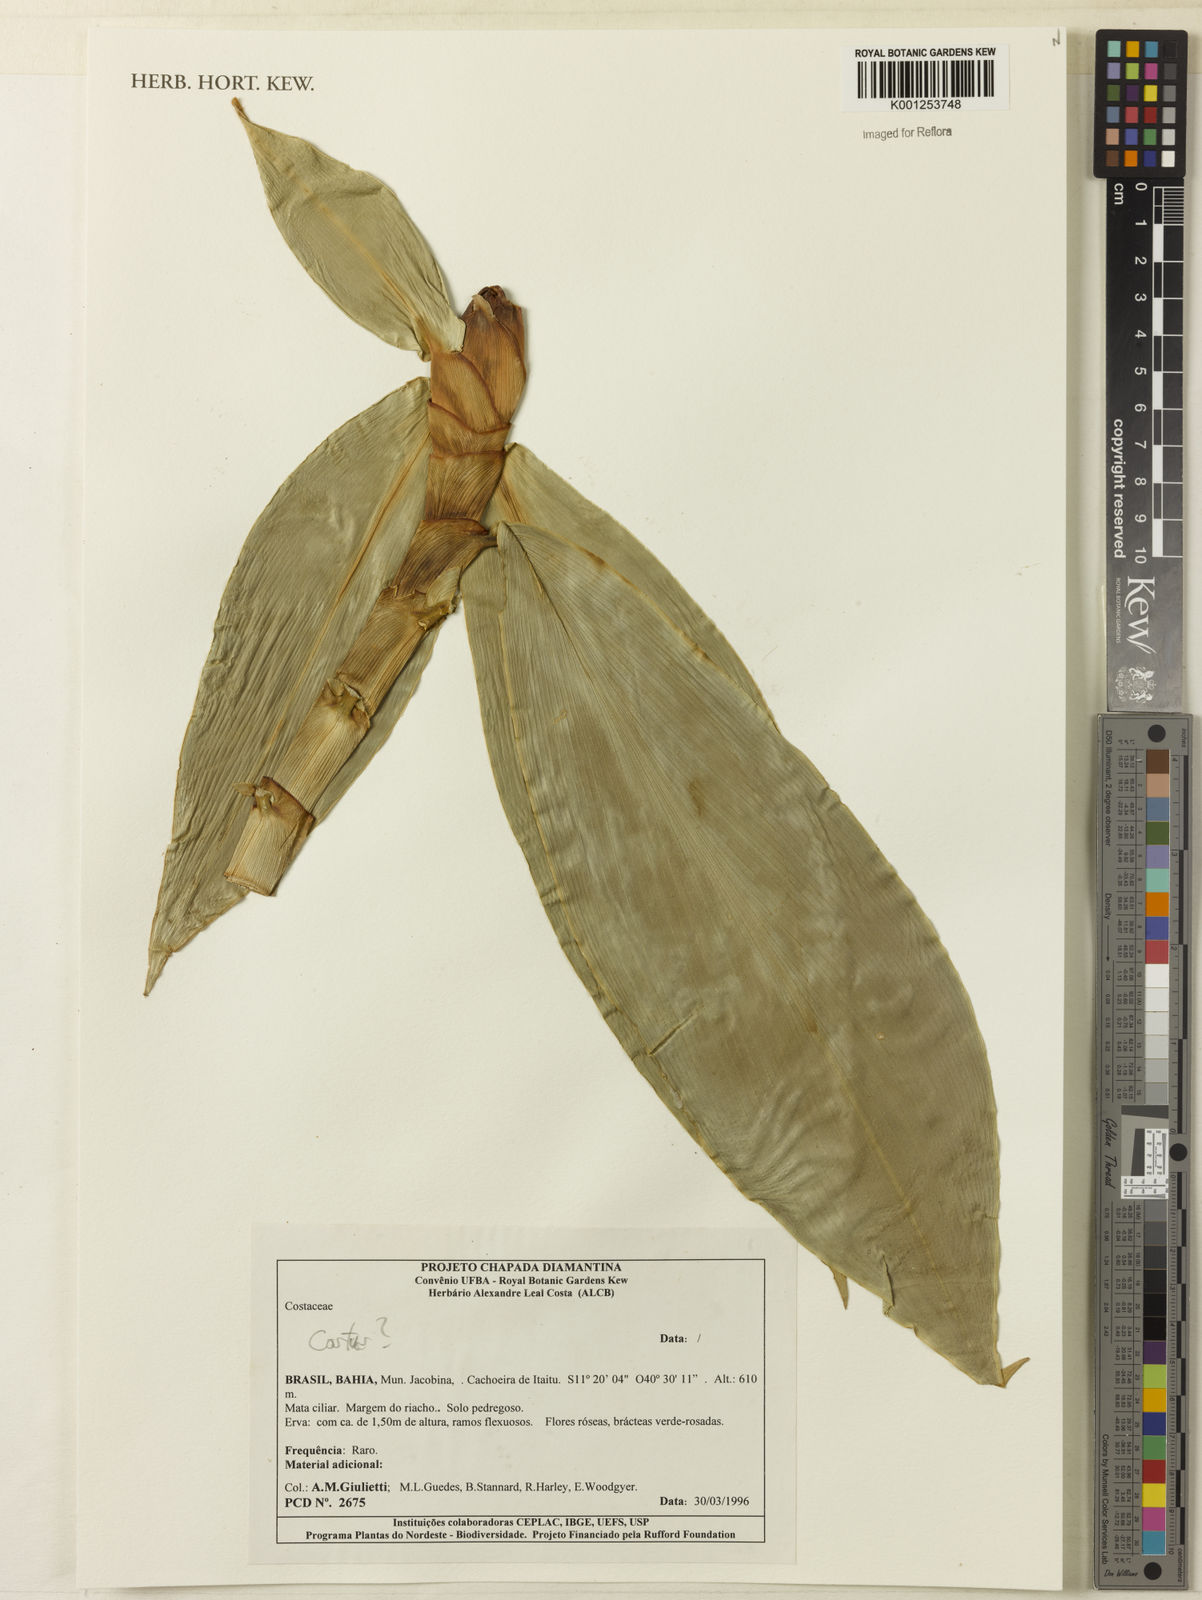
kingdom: Plantae
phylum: Tracheophyta
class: Liliopsida
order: Zingiberales
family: Costaceae
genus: Costus
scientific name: Costus
